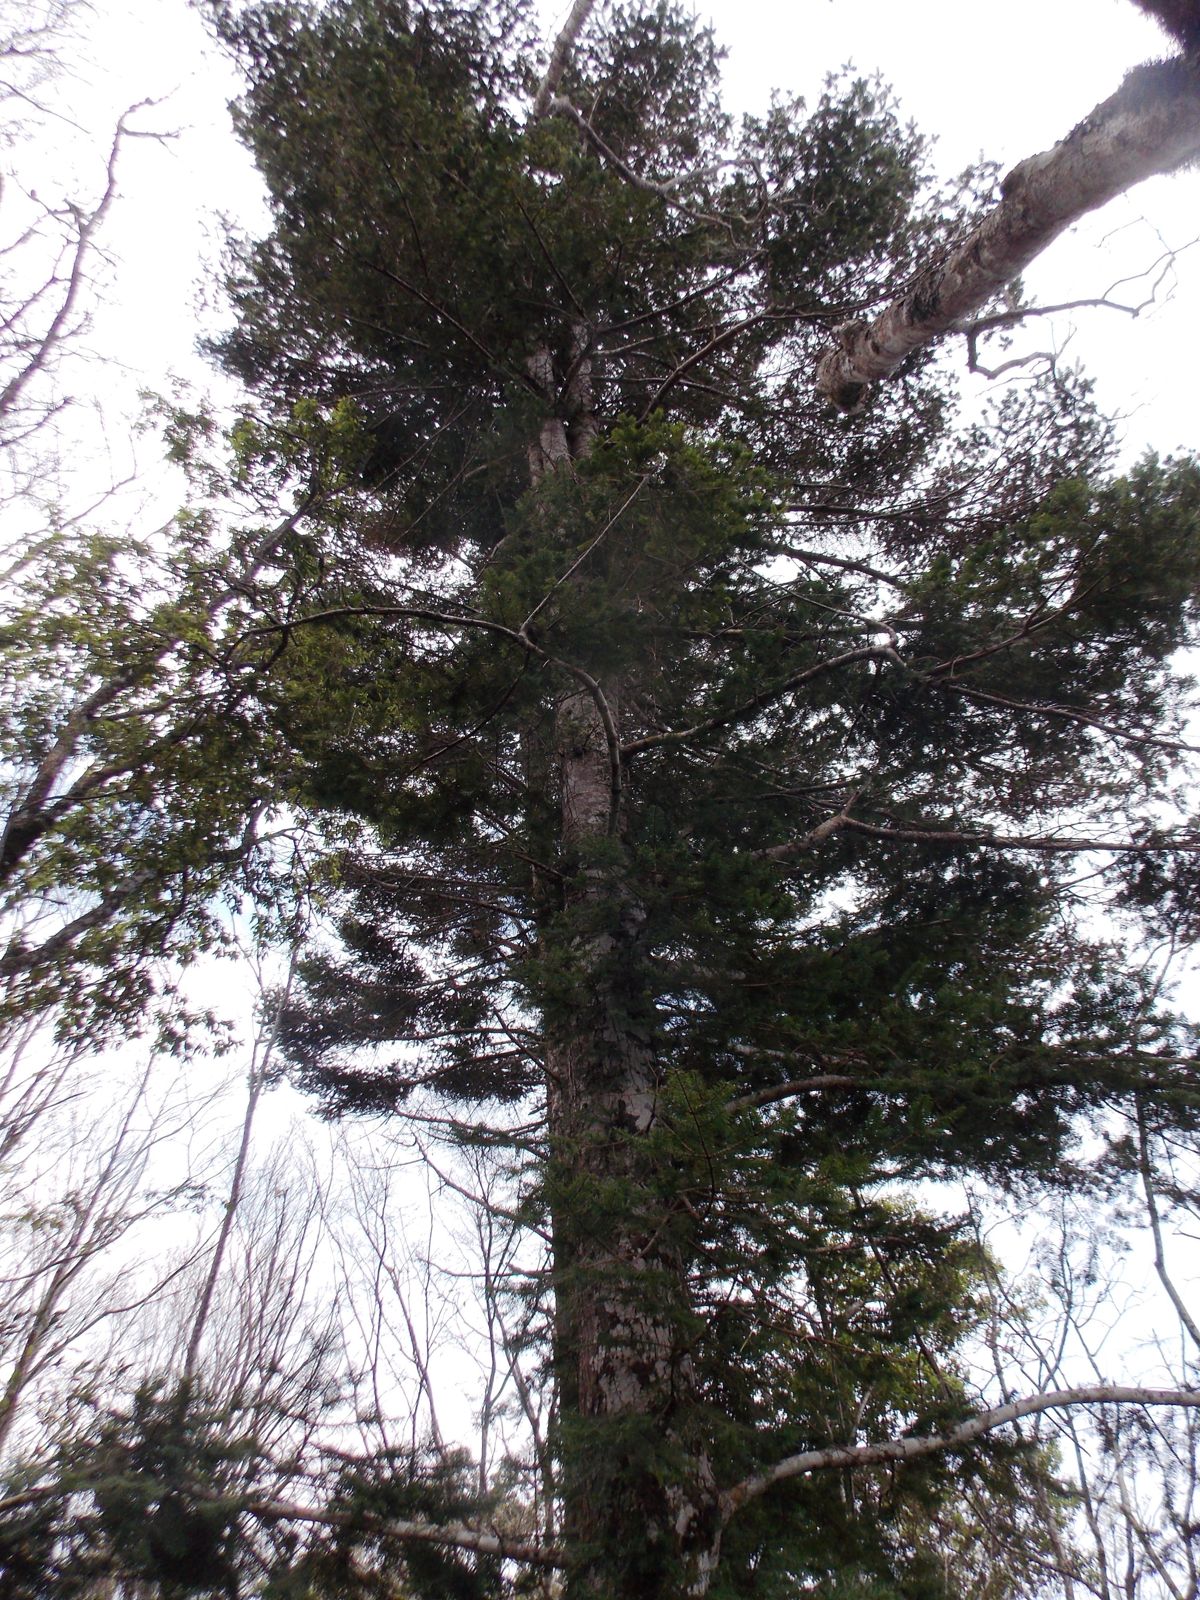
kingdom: Plantae
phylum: Tracheophyta
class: Pinopsida
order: Pinales
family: Pinaceae
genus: Abies
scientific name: Abies guatemalensis
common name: Guatemalan fir
